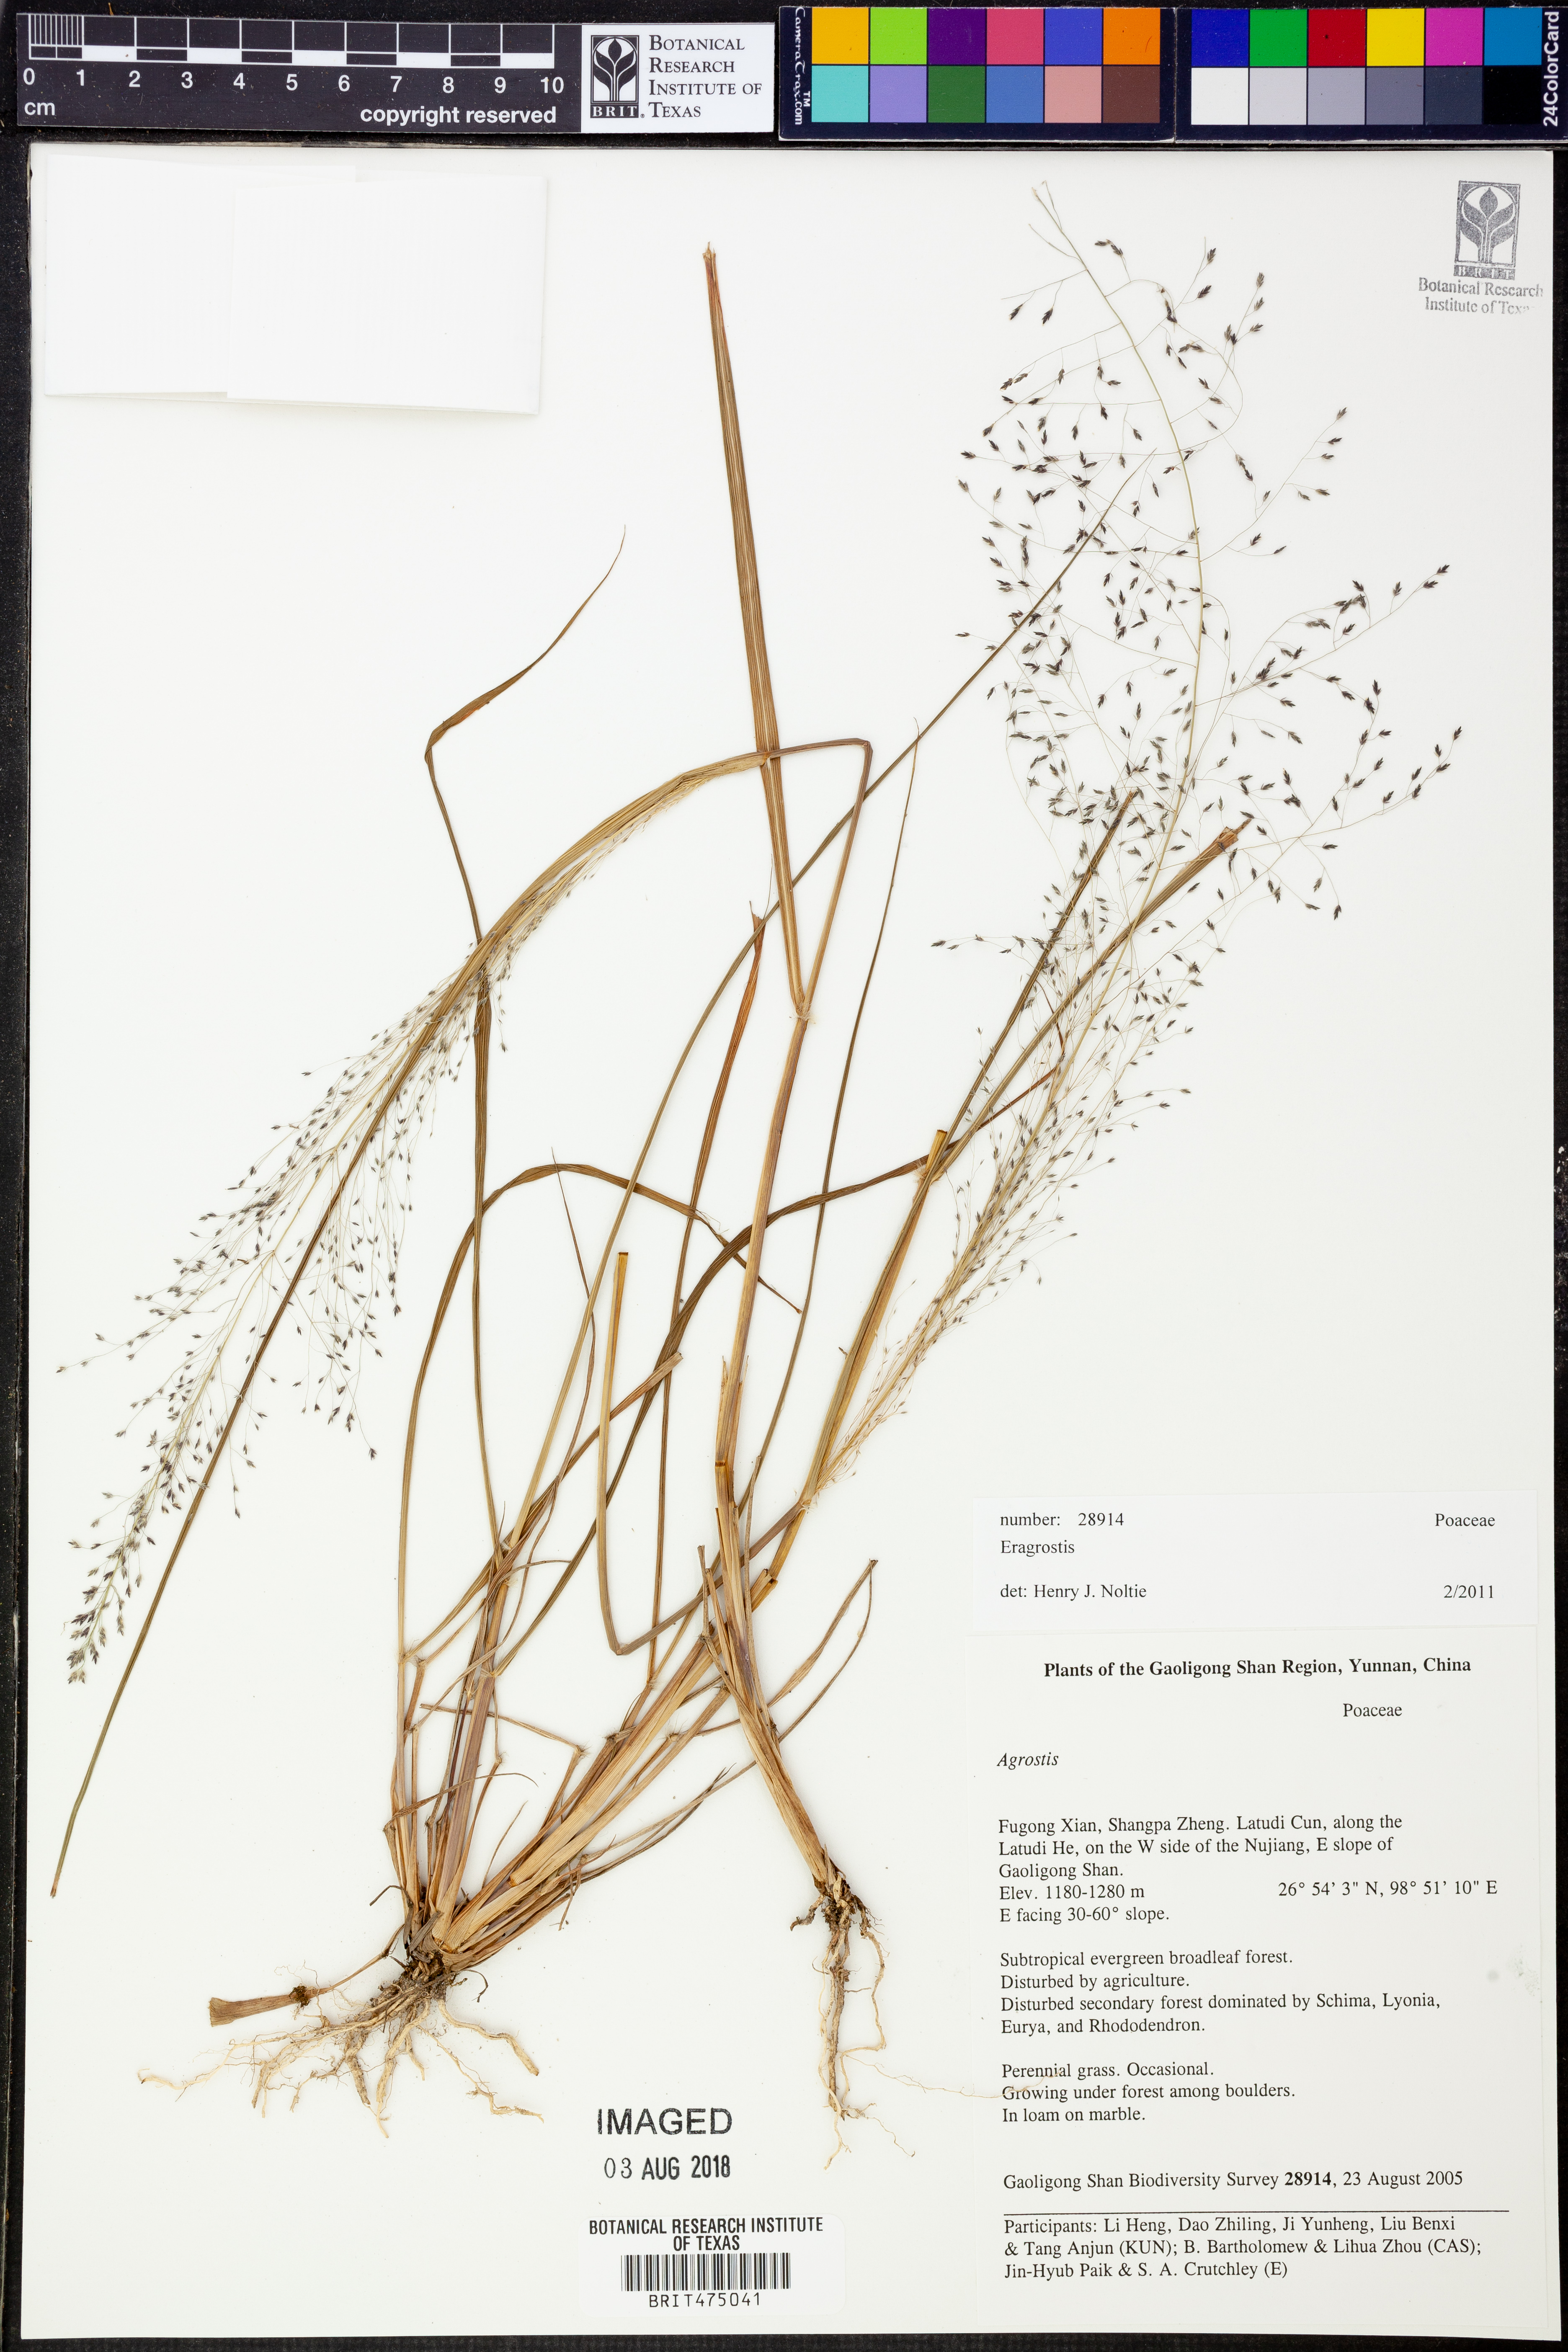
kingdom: Plantae
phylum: Tracheophyta
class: Liliopsida
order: Poales
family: Poaceae
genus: Eragrostis
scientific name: Eragrostis
